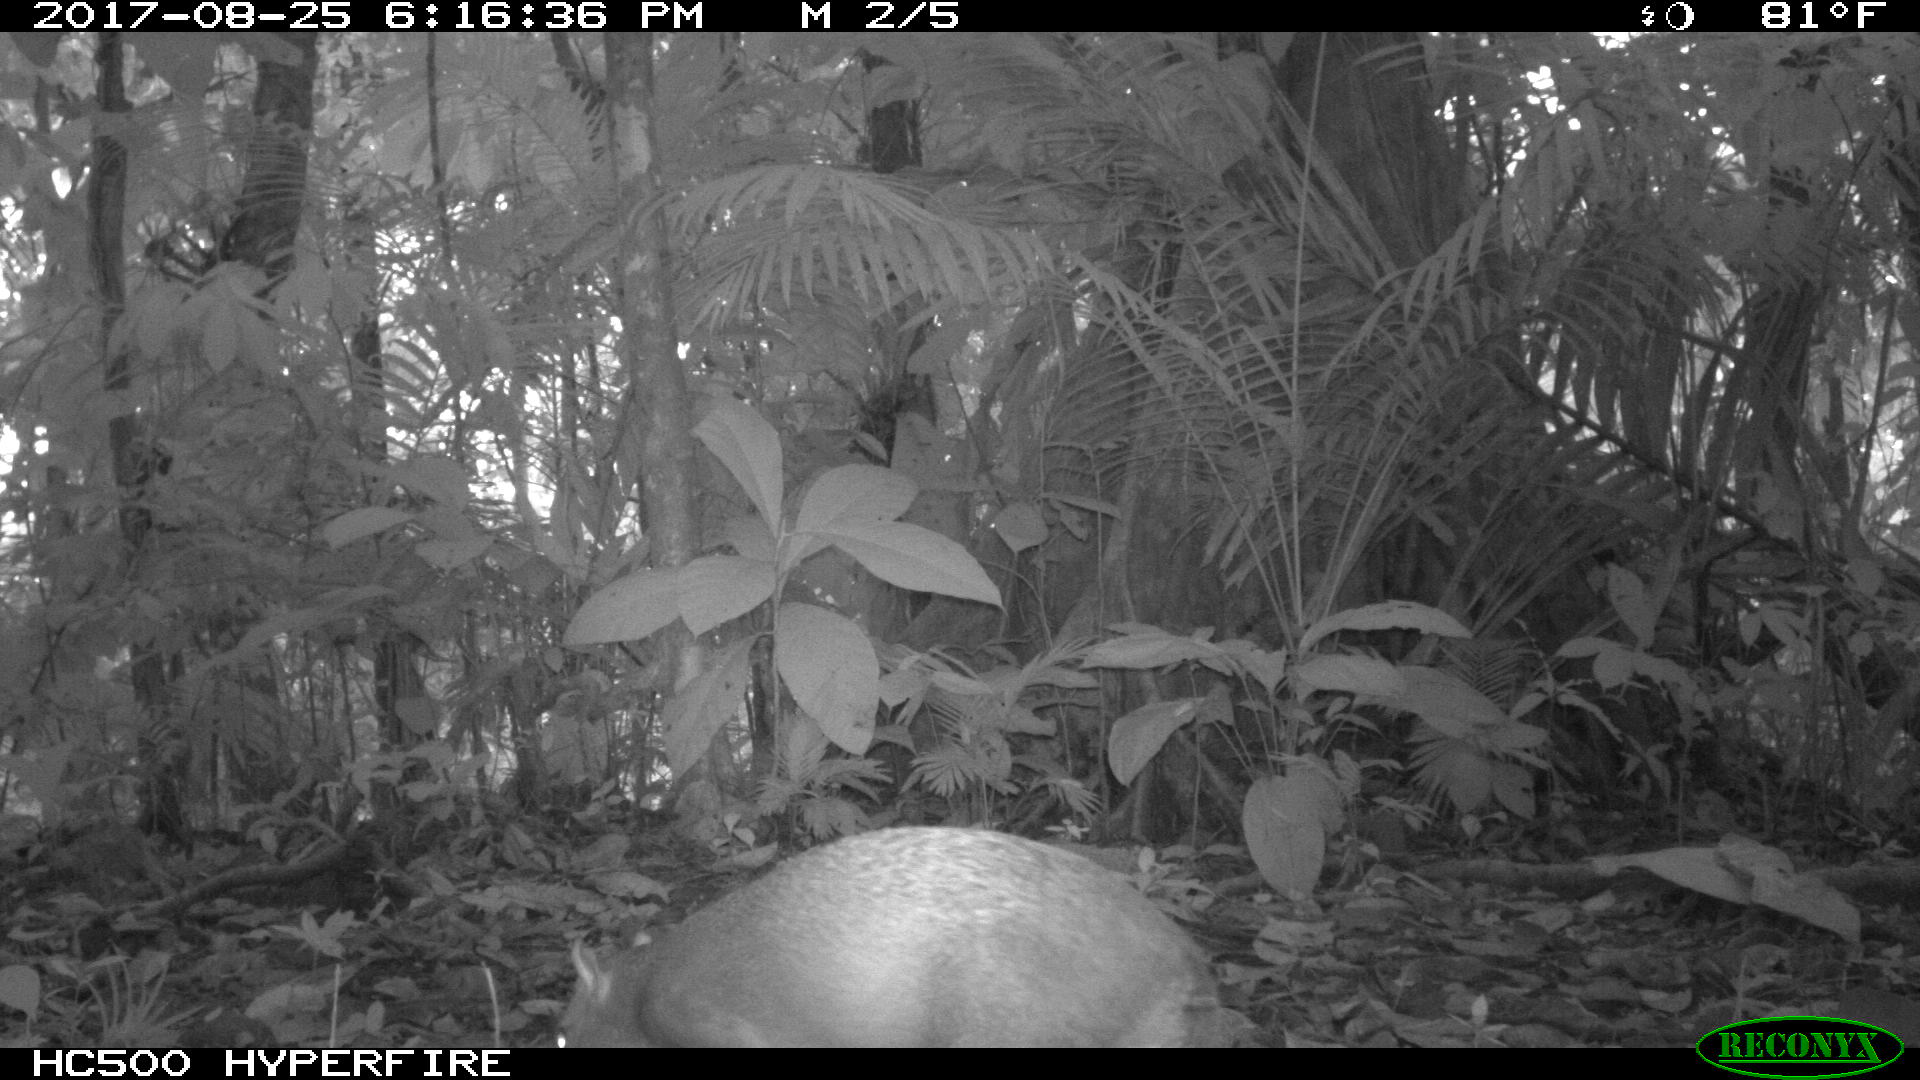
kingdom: Animalia
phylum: Chordata
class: Mammalia
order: Rodentia
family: Dasyproctidae
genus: Dasyprocta
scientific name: Dasyprocta punctata
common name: Central american agouti
